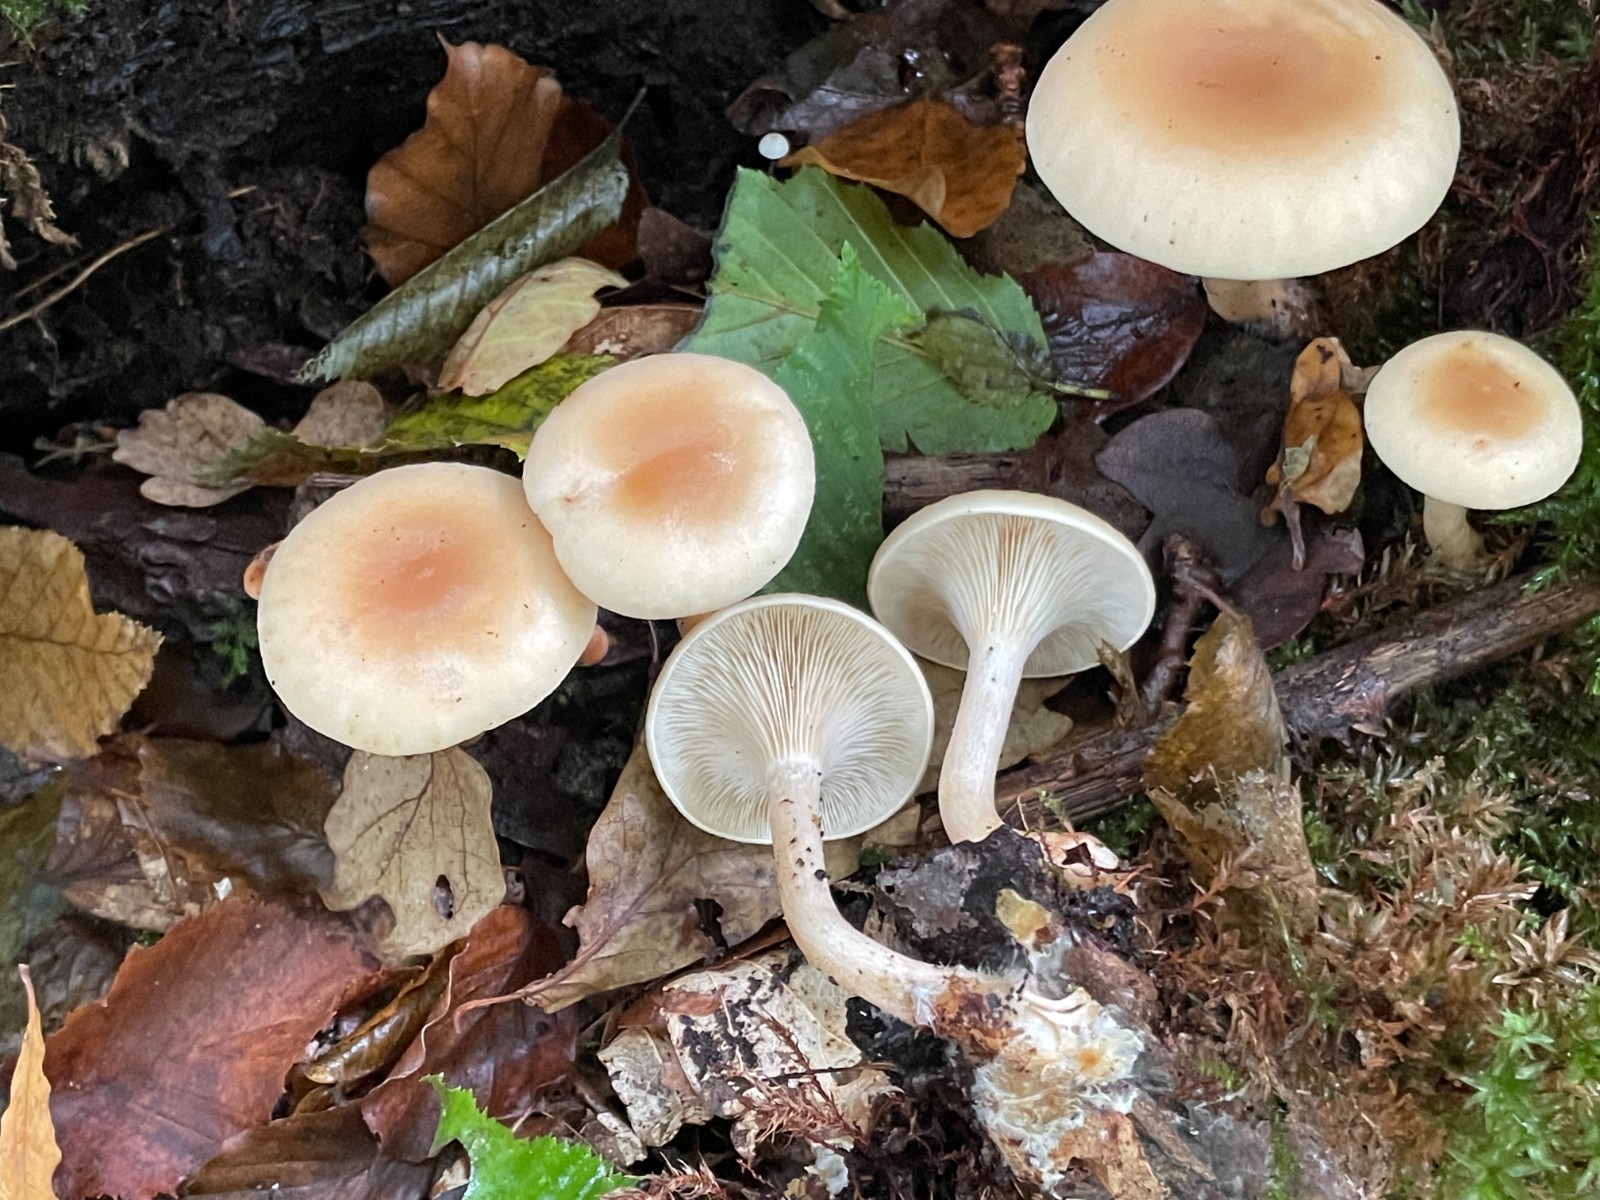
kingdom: Fungi
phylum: Basidiomycota
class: Agaricomycetes
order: Agaricales
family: Tricholomataceae
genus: Paralepista
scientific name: Paralepista flaccida
